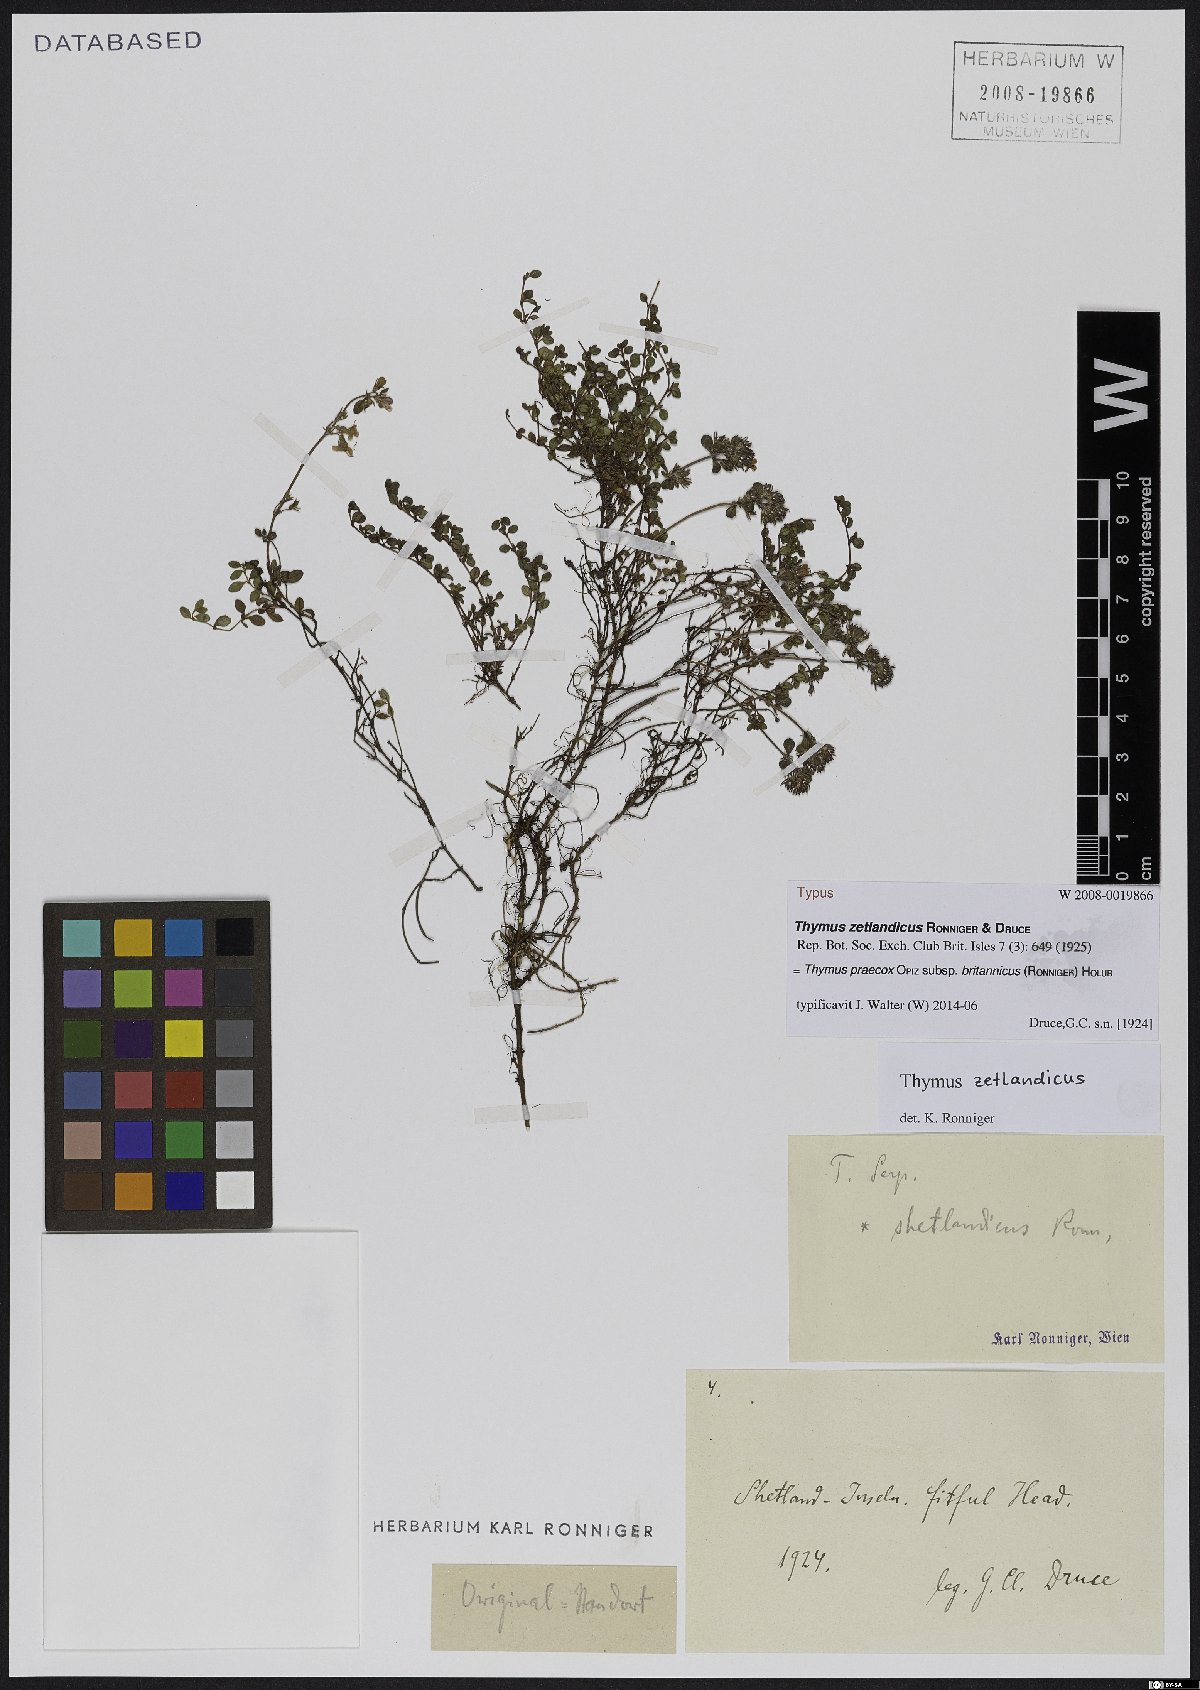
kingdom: Plantae
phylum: Tracheophyta
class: Magnoliopsida
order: Lamiales
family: Lamiaceae
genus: Thymus
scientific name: Thymus praecox
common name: Wild thyme
